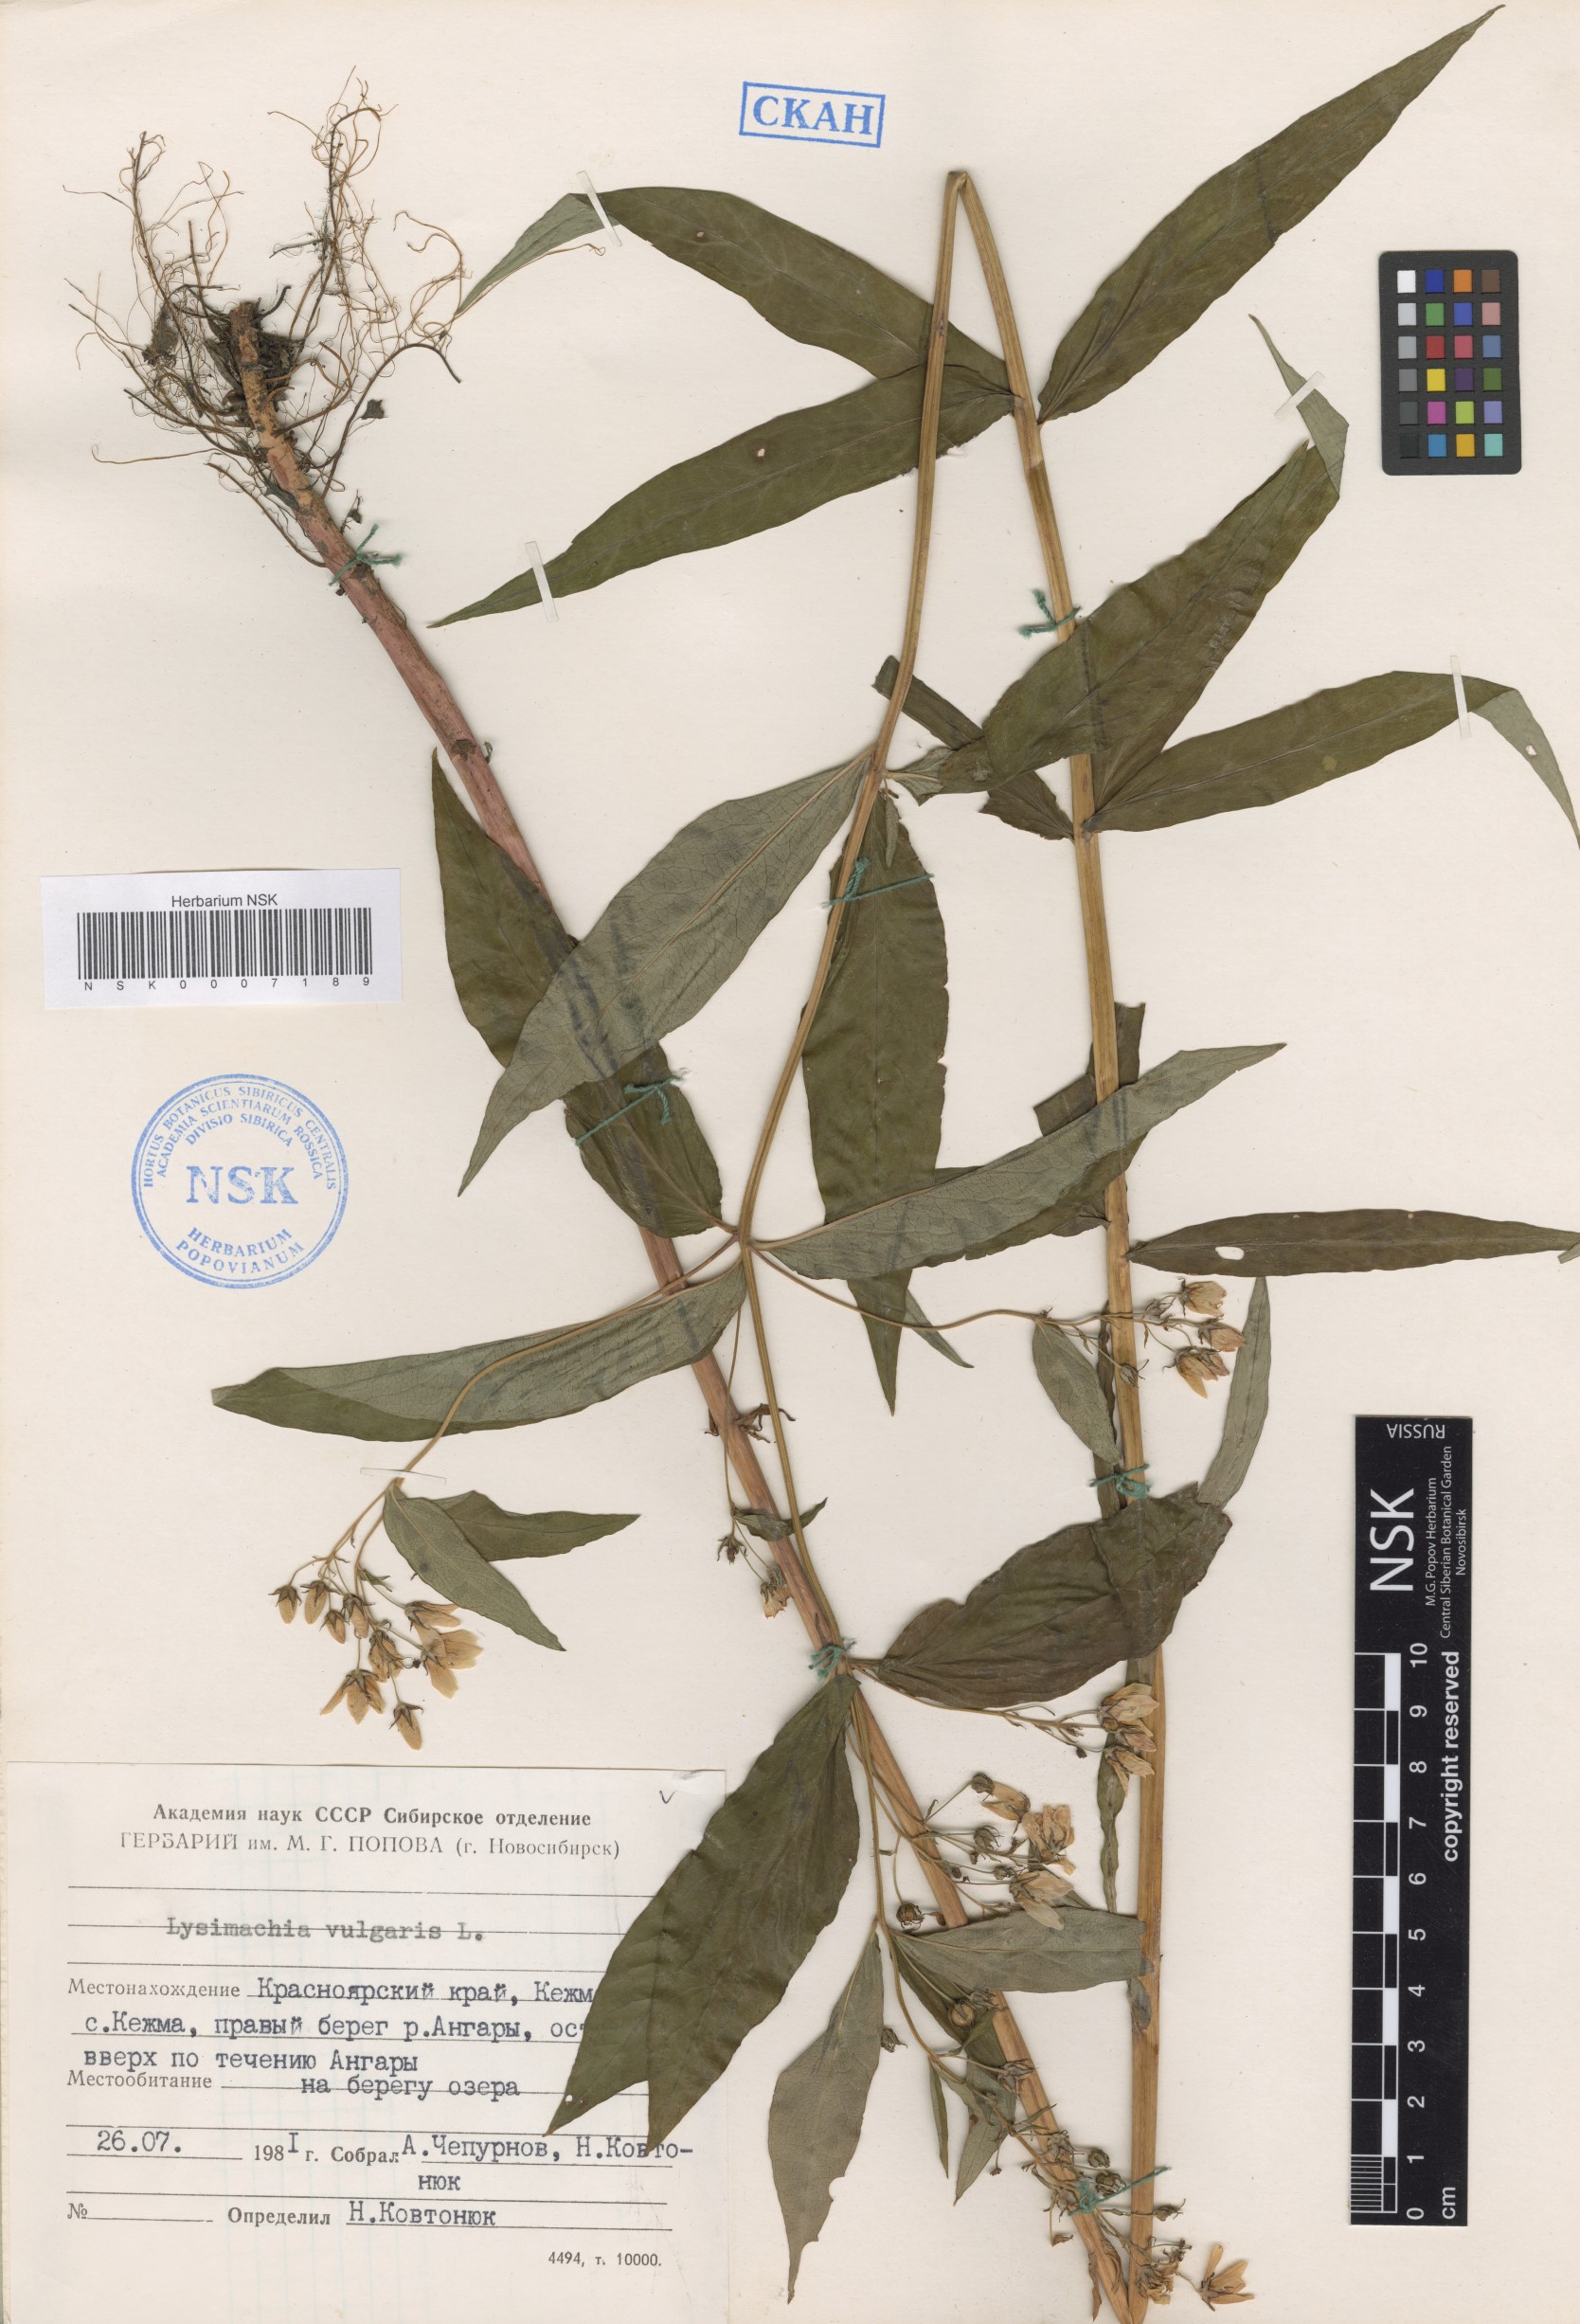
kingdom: Plantae
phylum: Tracheophyta
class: Magnoliopsida
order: Ericales
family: Primulaceae
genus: Lysimachia
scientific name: Lysimachia vulgaris
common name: Yellow loosestrife
